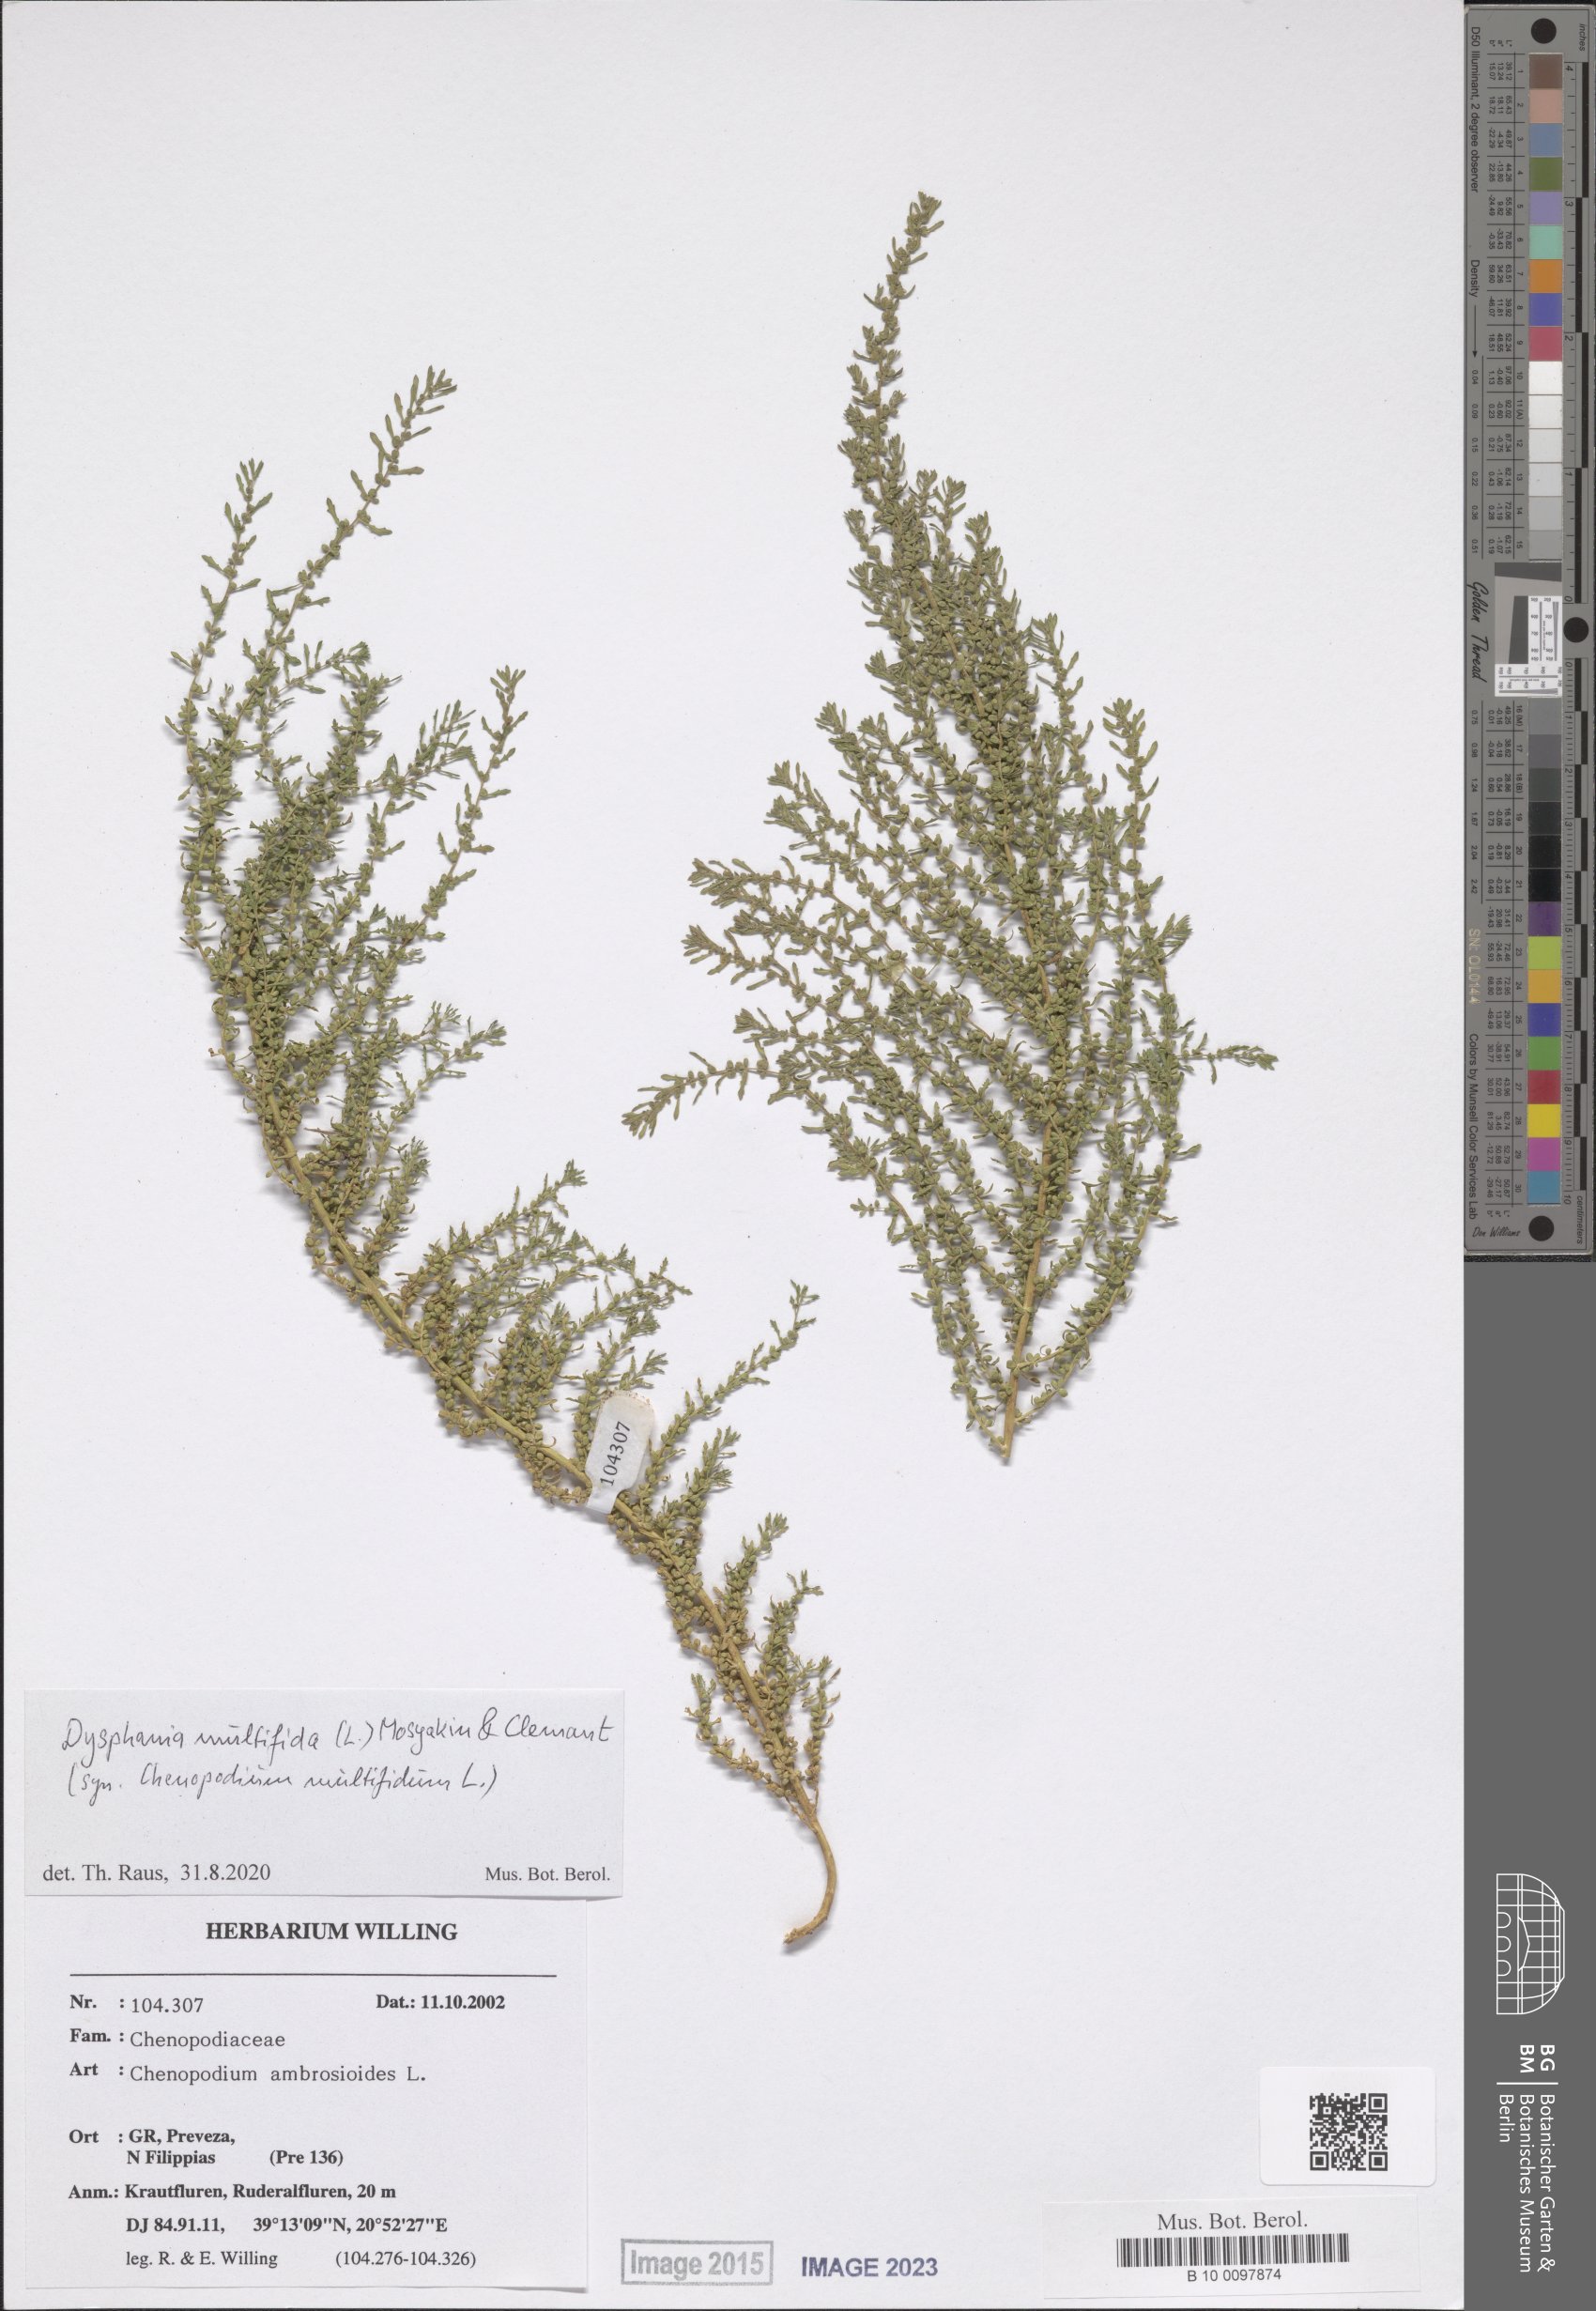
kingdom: Plantae
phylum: Tracheophyta
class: Magnoliopsida
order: Caryophyllales
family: Amaranthaceae
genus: Dysphania
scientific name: Dysphania multifida
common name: Cutleaf goosefoot
